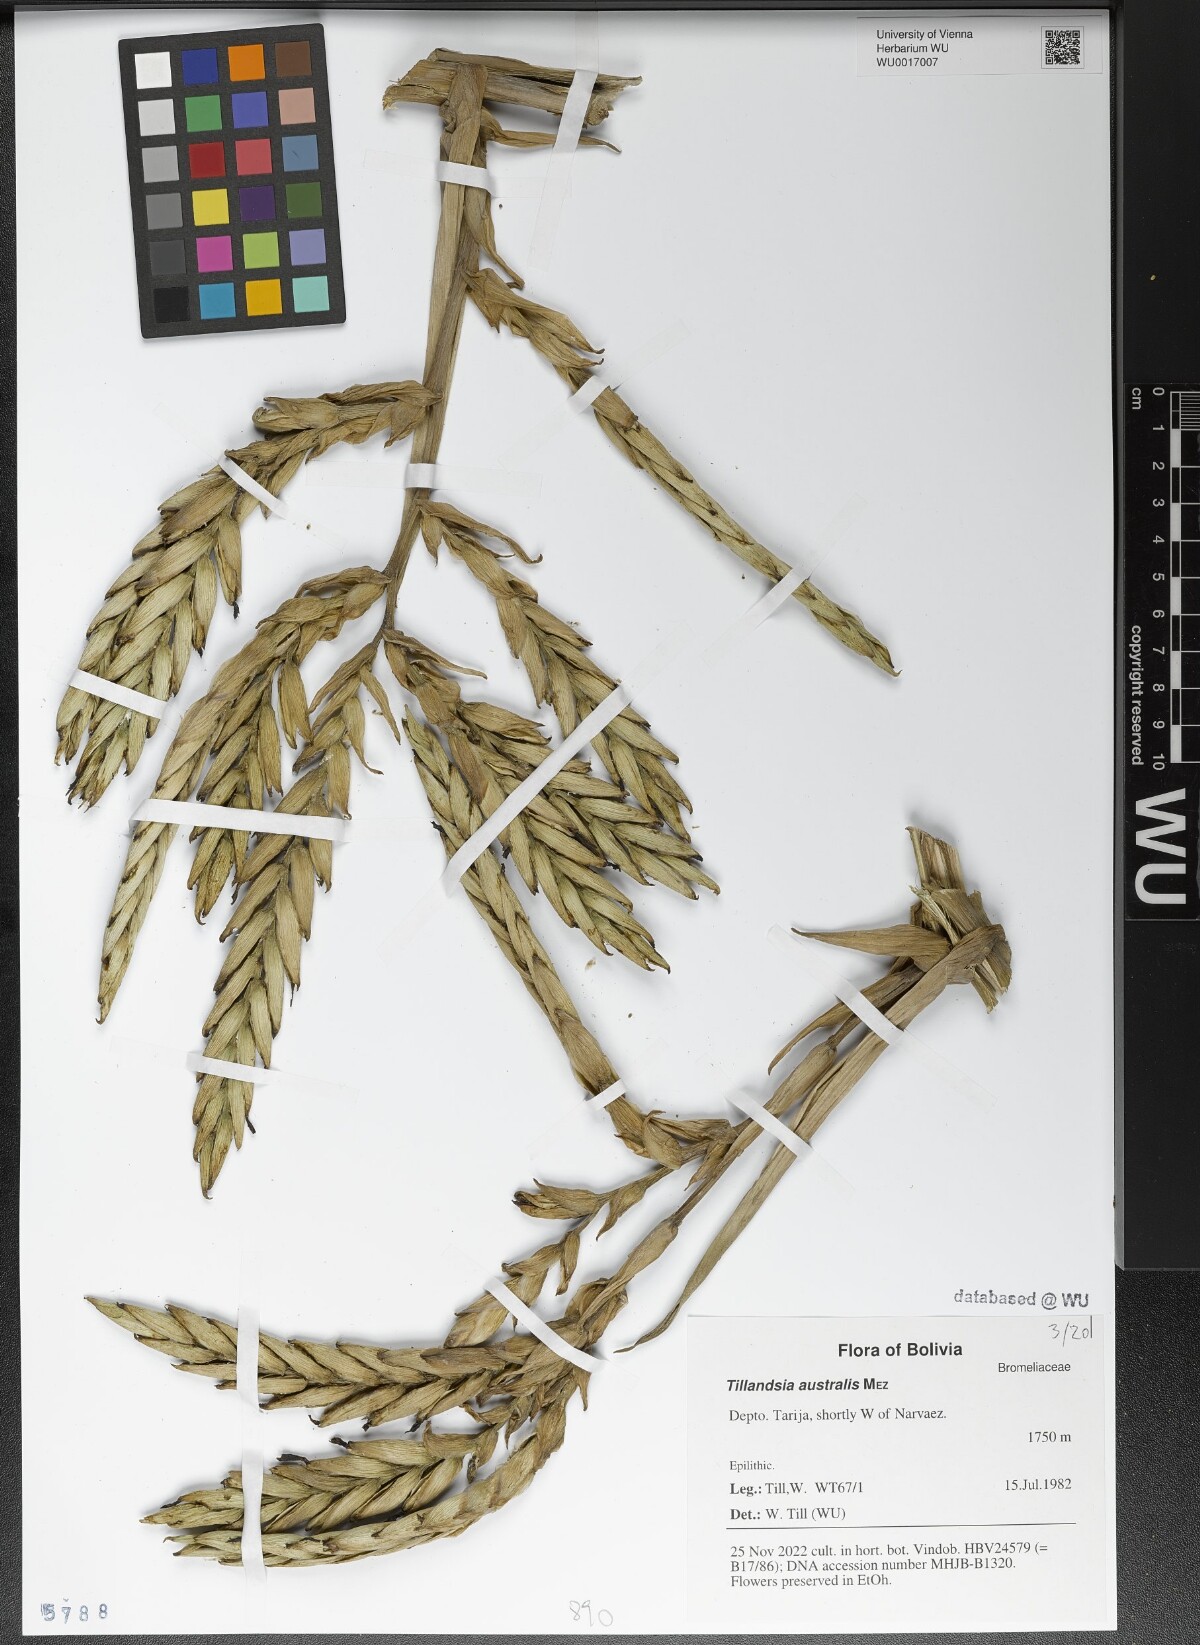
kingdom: Plantae
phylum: Tracheophyta
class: Liliopsida
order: Poales
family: Bromeliaceae
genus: Tillandsia
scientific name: Tillandsia australis
